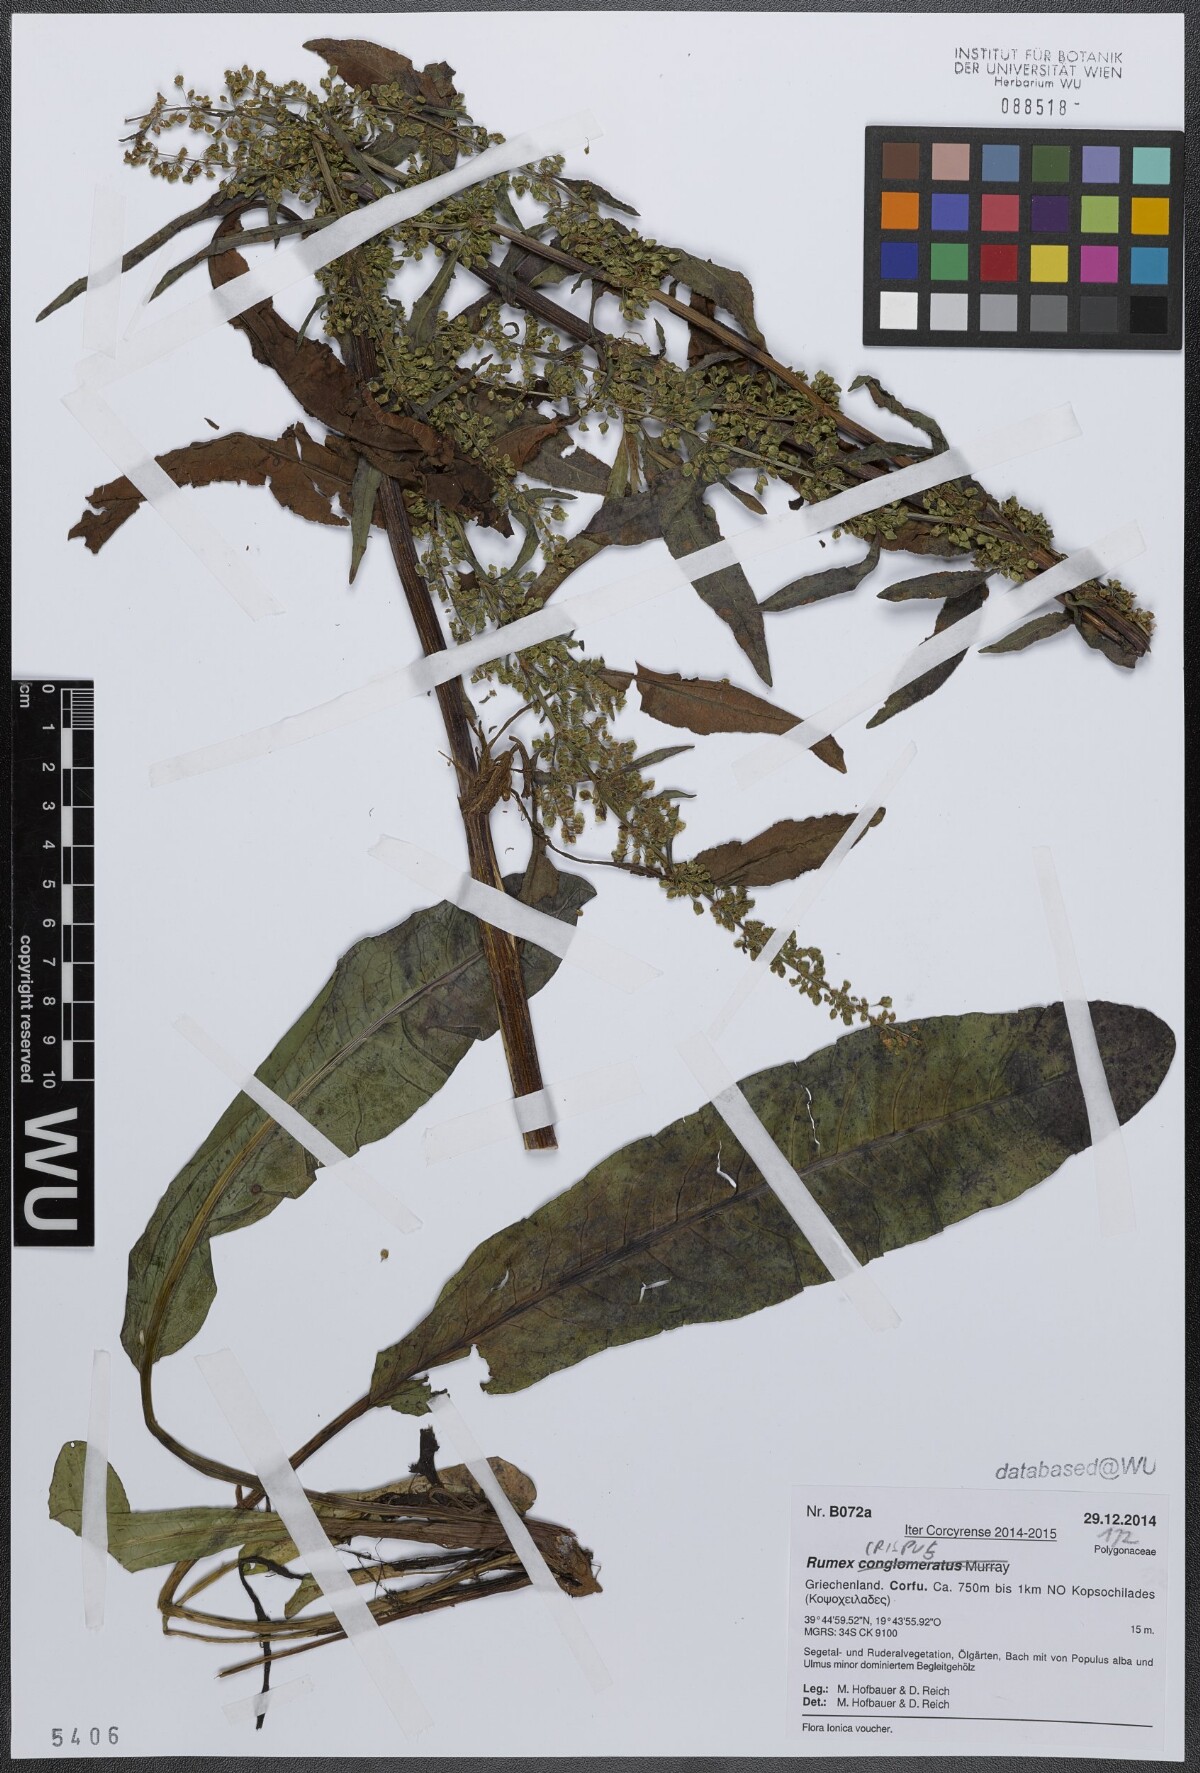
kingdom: Plantae
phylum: Tracheophyta
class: Magnoliopsida
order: Caryophyllales
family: Polygonaceae
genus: Rumex
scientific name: Rumex crispus
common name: Curled dock
